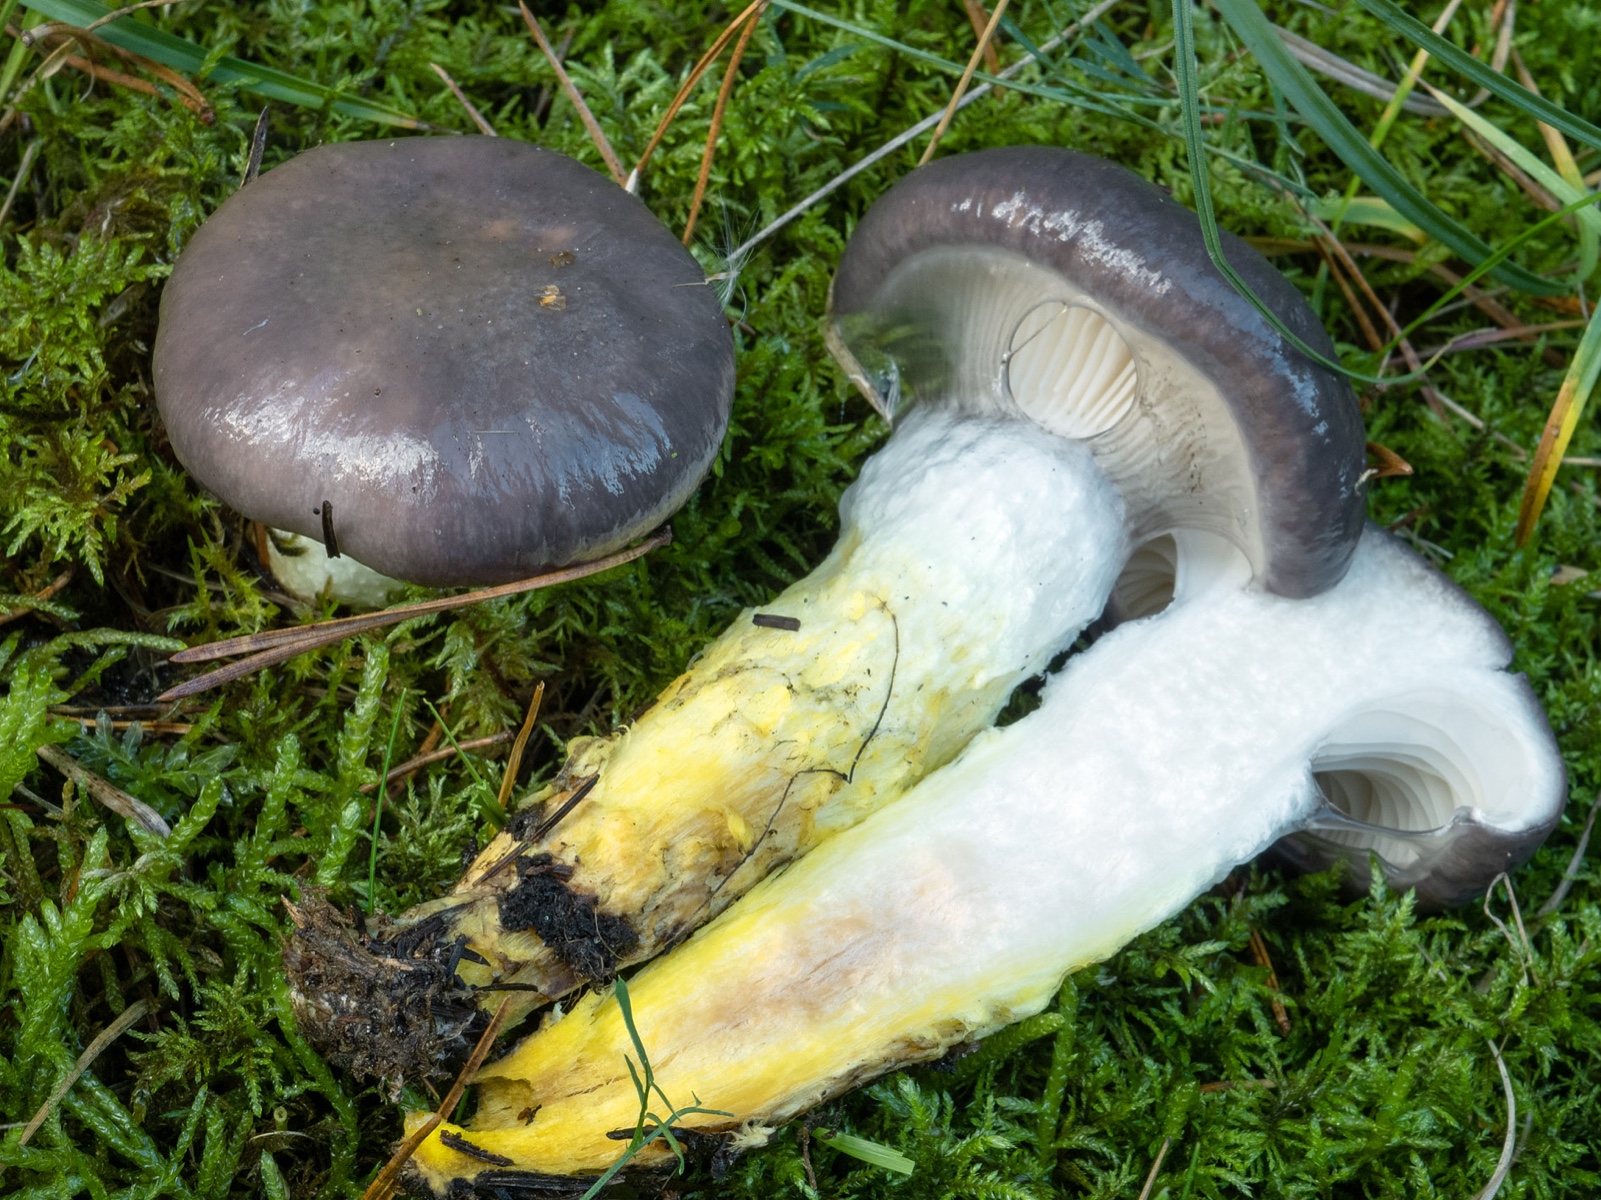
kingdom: Fungi
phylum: Basidiomycota
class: Agaricomycetes
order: Boletales
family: Gomphidiaceae
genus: Gomphidius
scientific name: Gomphidius glutinosus
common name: grå slimslør
